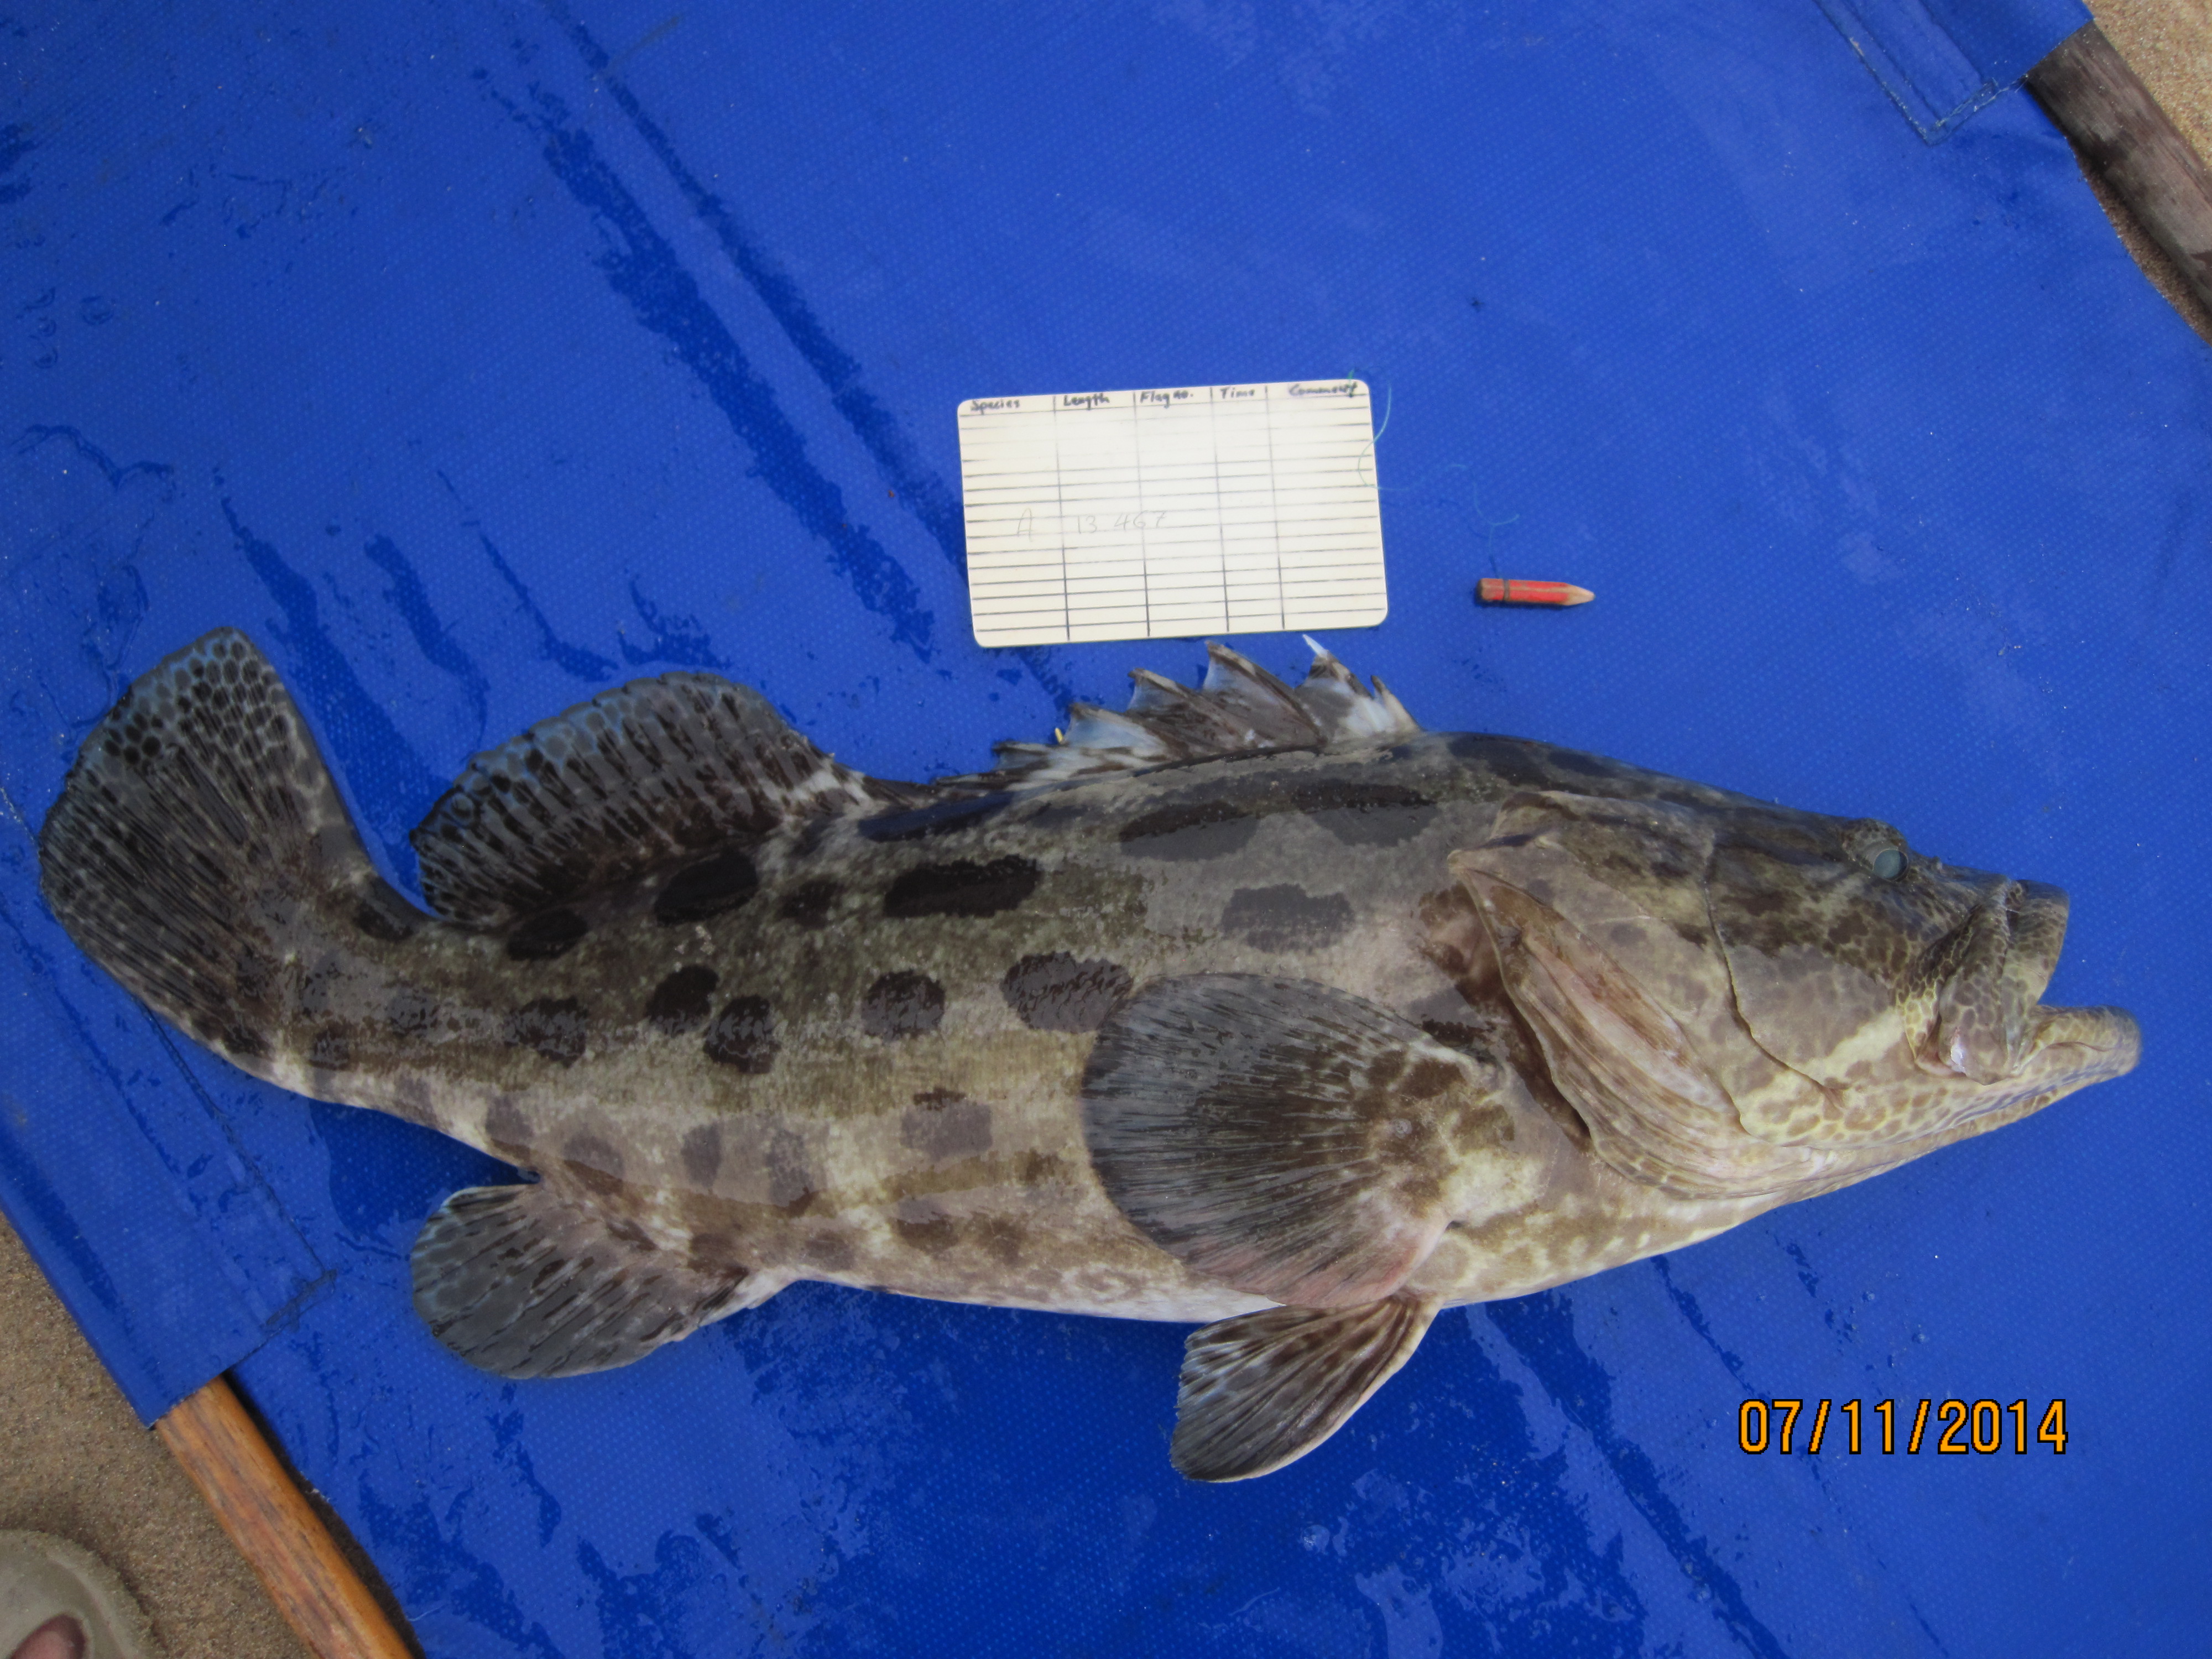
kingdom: Animalia
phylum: Chordata
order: Perciformes
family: Serranidae
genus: Epinephelus
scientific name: Epinephelus tukula
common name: Potato cod
